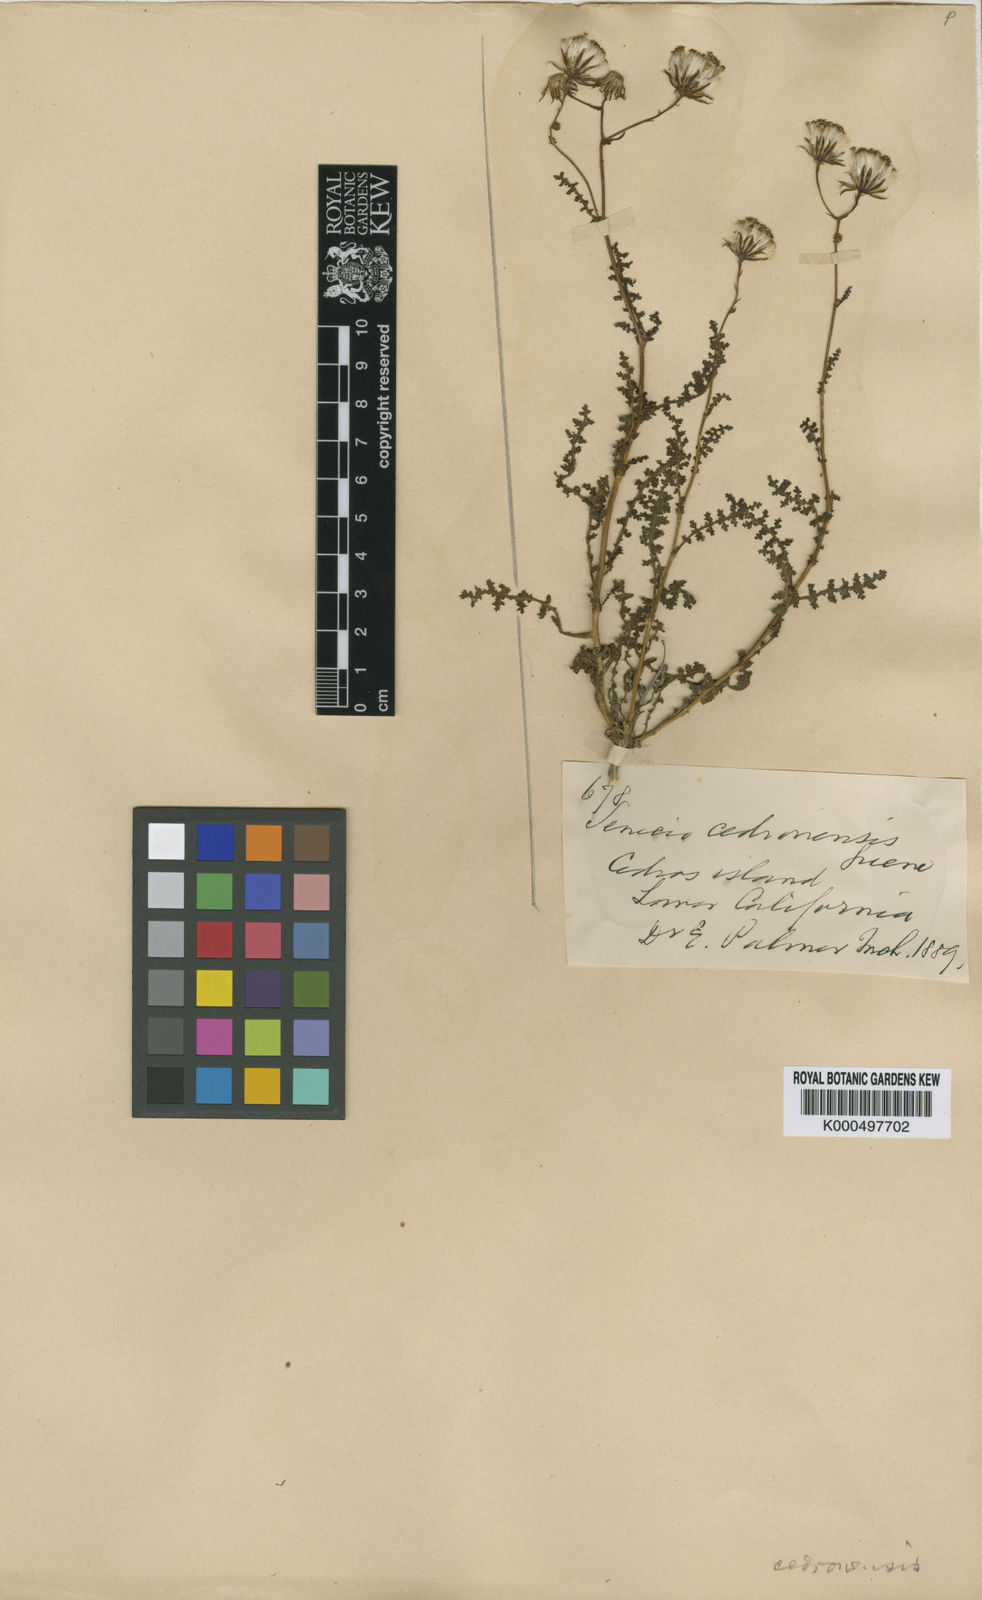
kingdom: Plantae
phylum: Tracheophyta
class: Magnoliopsida
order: Asterales
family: Asteraceae
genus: Senecio
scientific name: Senecio cedrosensis
